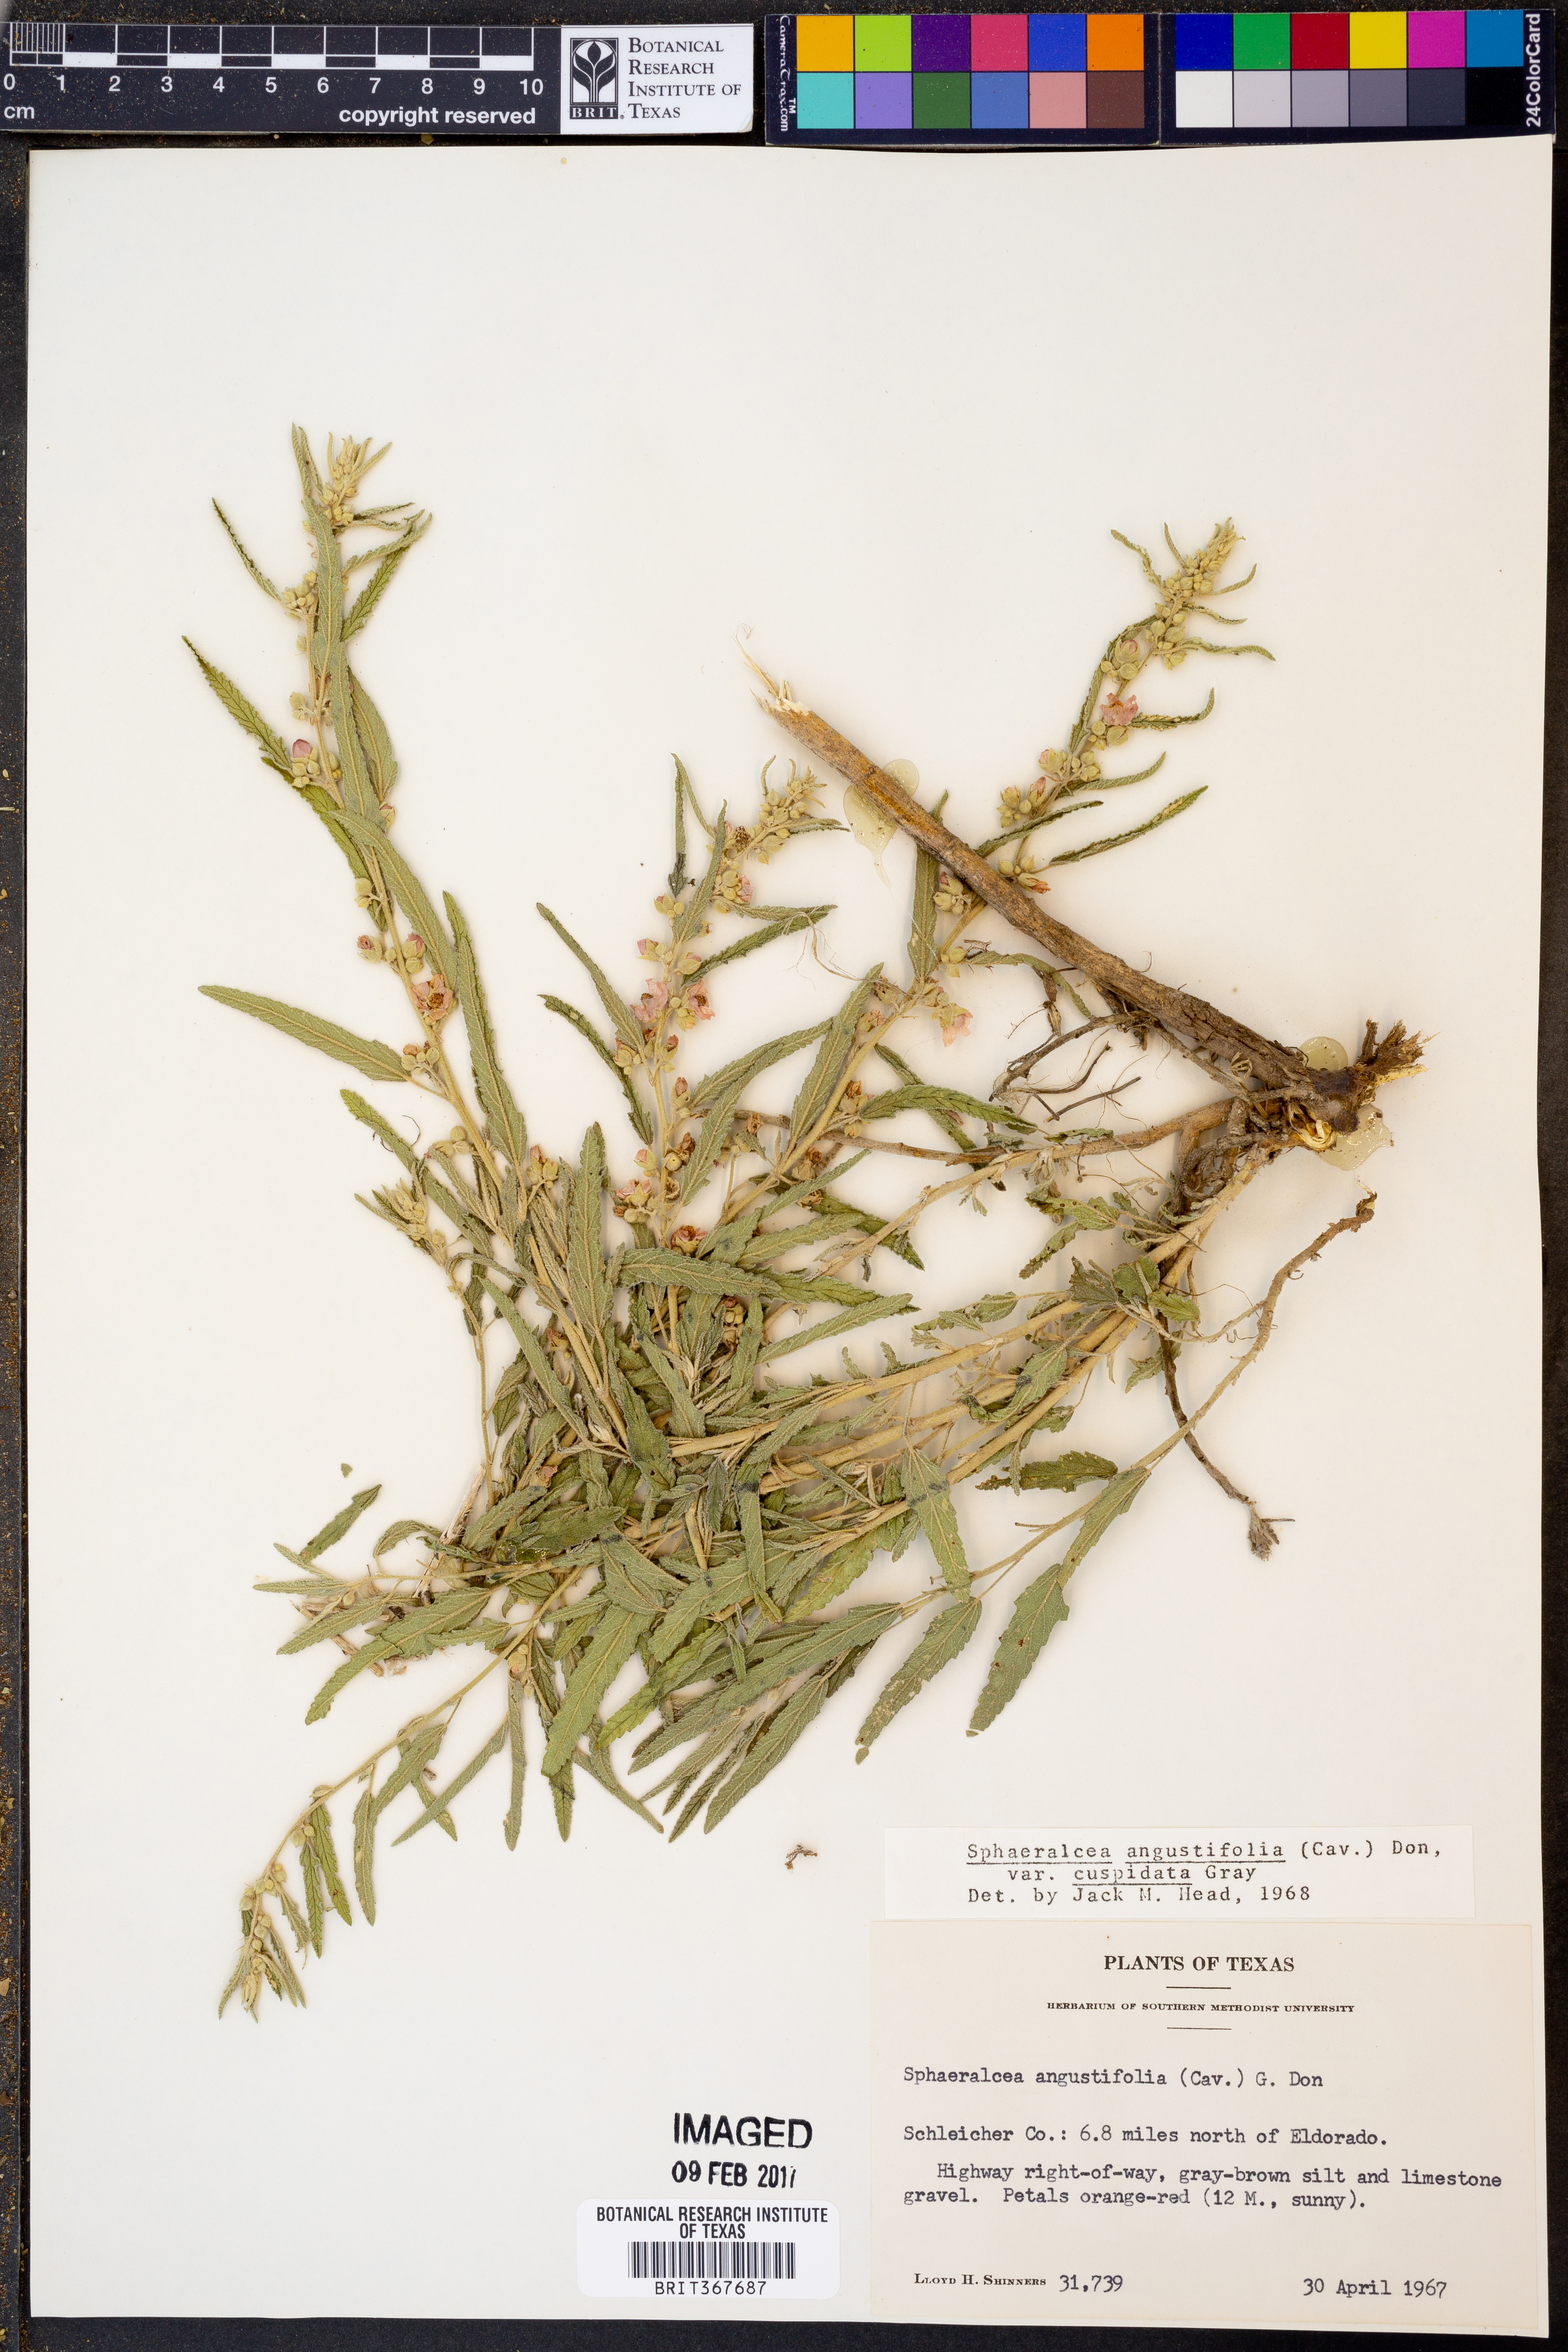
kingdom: Plantae
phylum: Tracheophyta
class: Magnoliopsida
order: Malvales
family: Malvaceae
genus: Sphaeralcea
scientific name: Sphaeralcea angustifolia
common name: Copper globe-mallow
